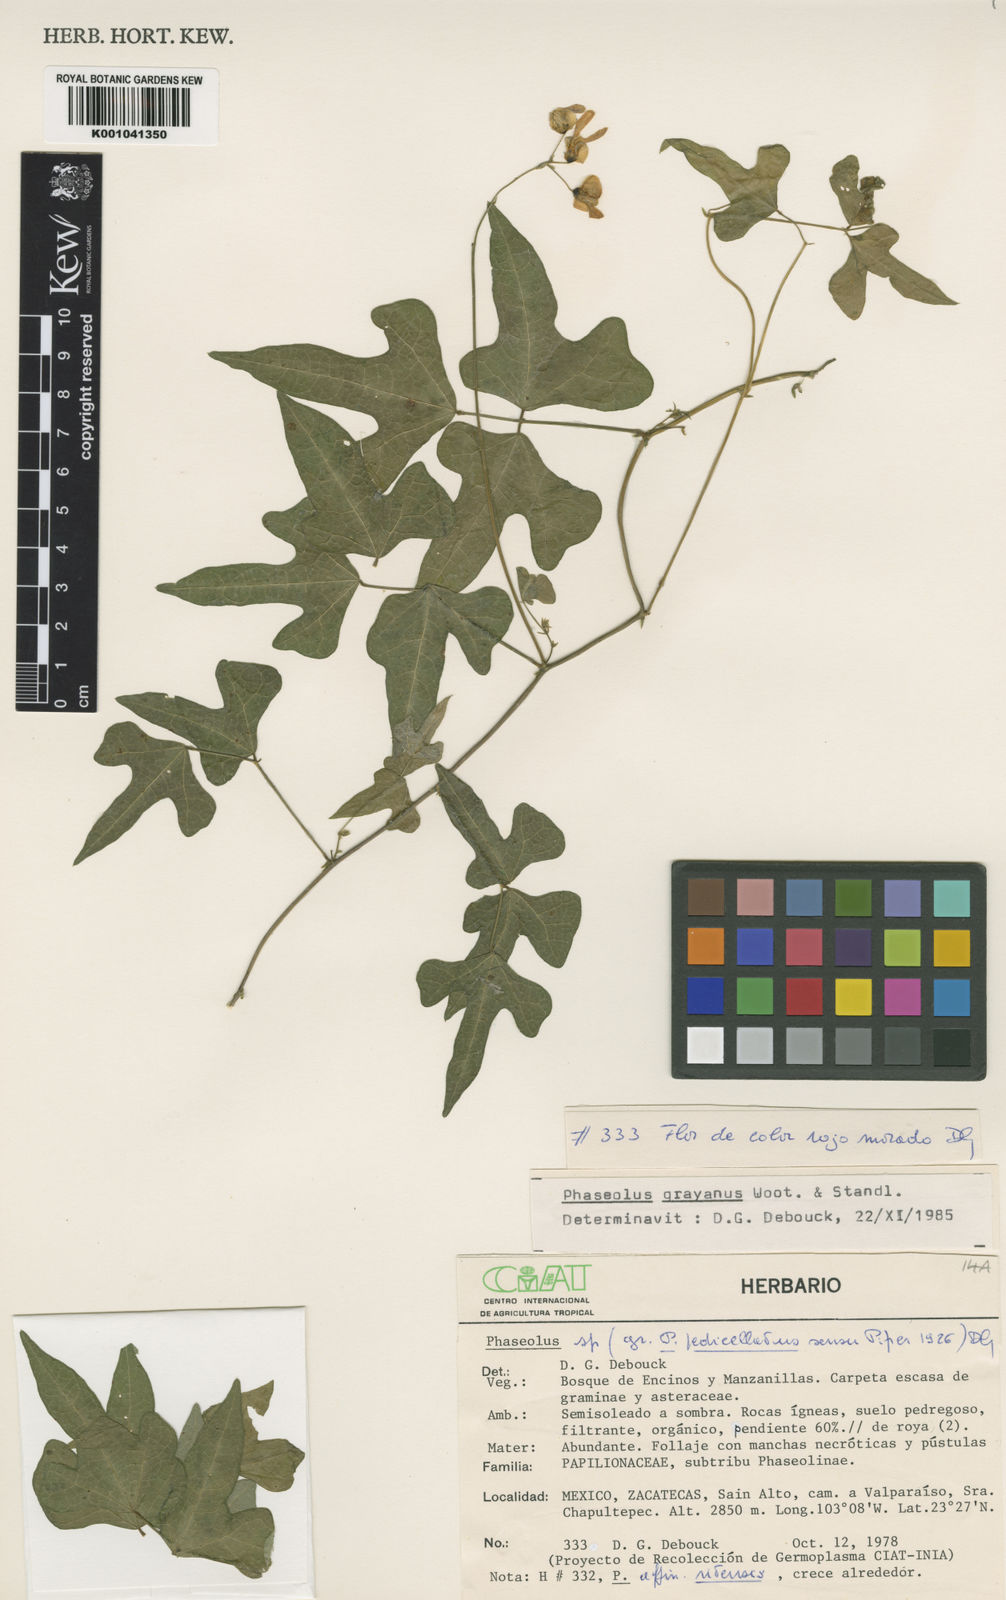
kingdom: Plantae
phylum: Tracheophyta
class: Magnoliopsida
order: Fabales
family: Fabaceae
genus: Phaseolus
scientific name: Phaseolus pedicellatus
